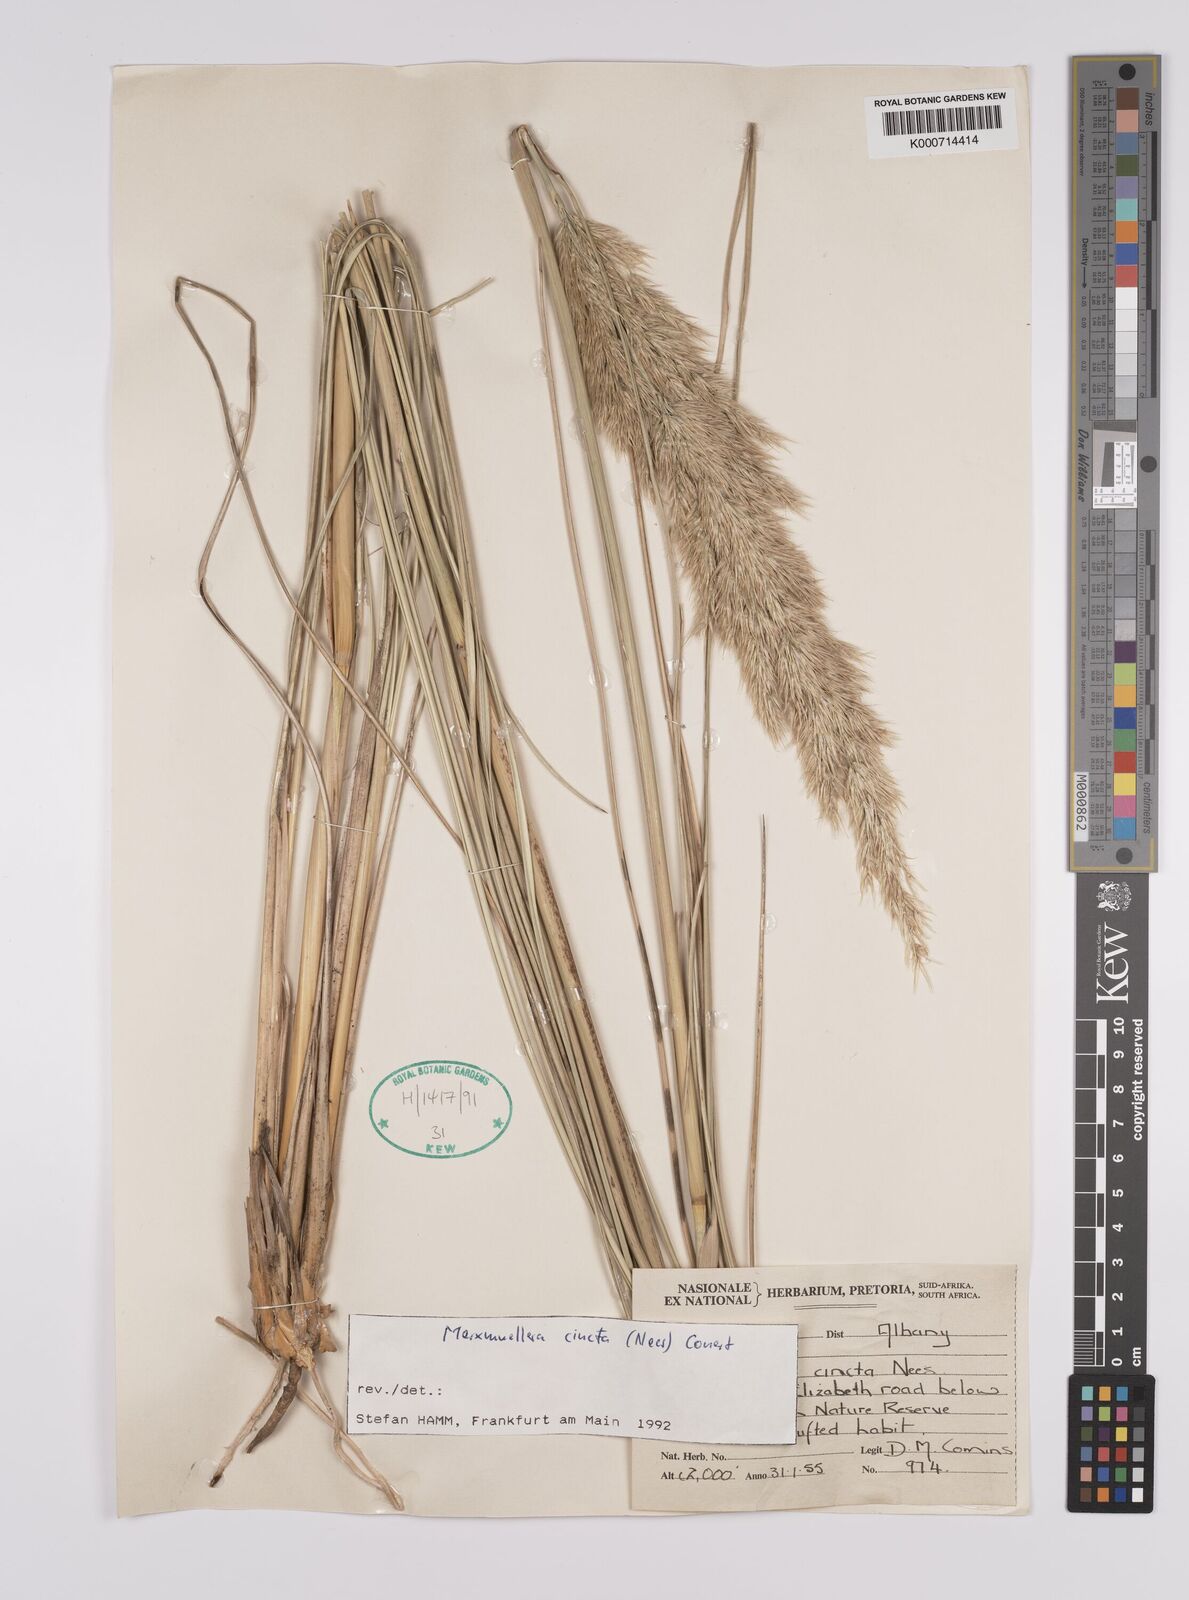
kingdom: Plantae
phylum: Tracheophyta
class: Liliopsida
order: Poales
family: Poaceae
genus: Rytidosperma
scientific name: Rytidosperma
